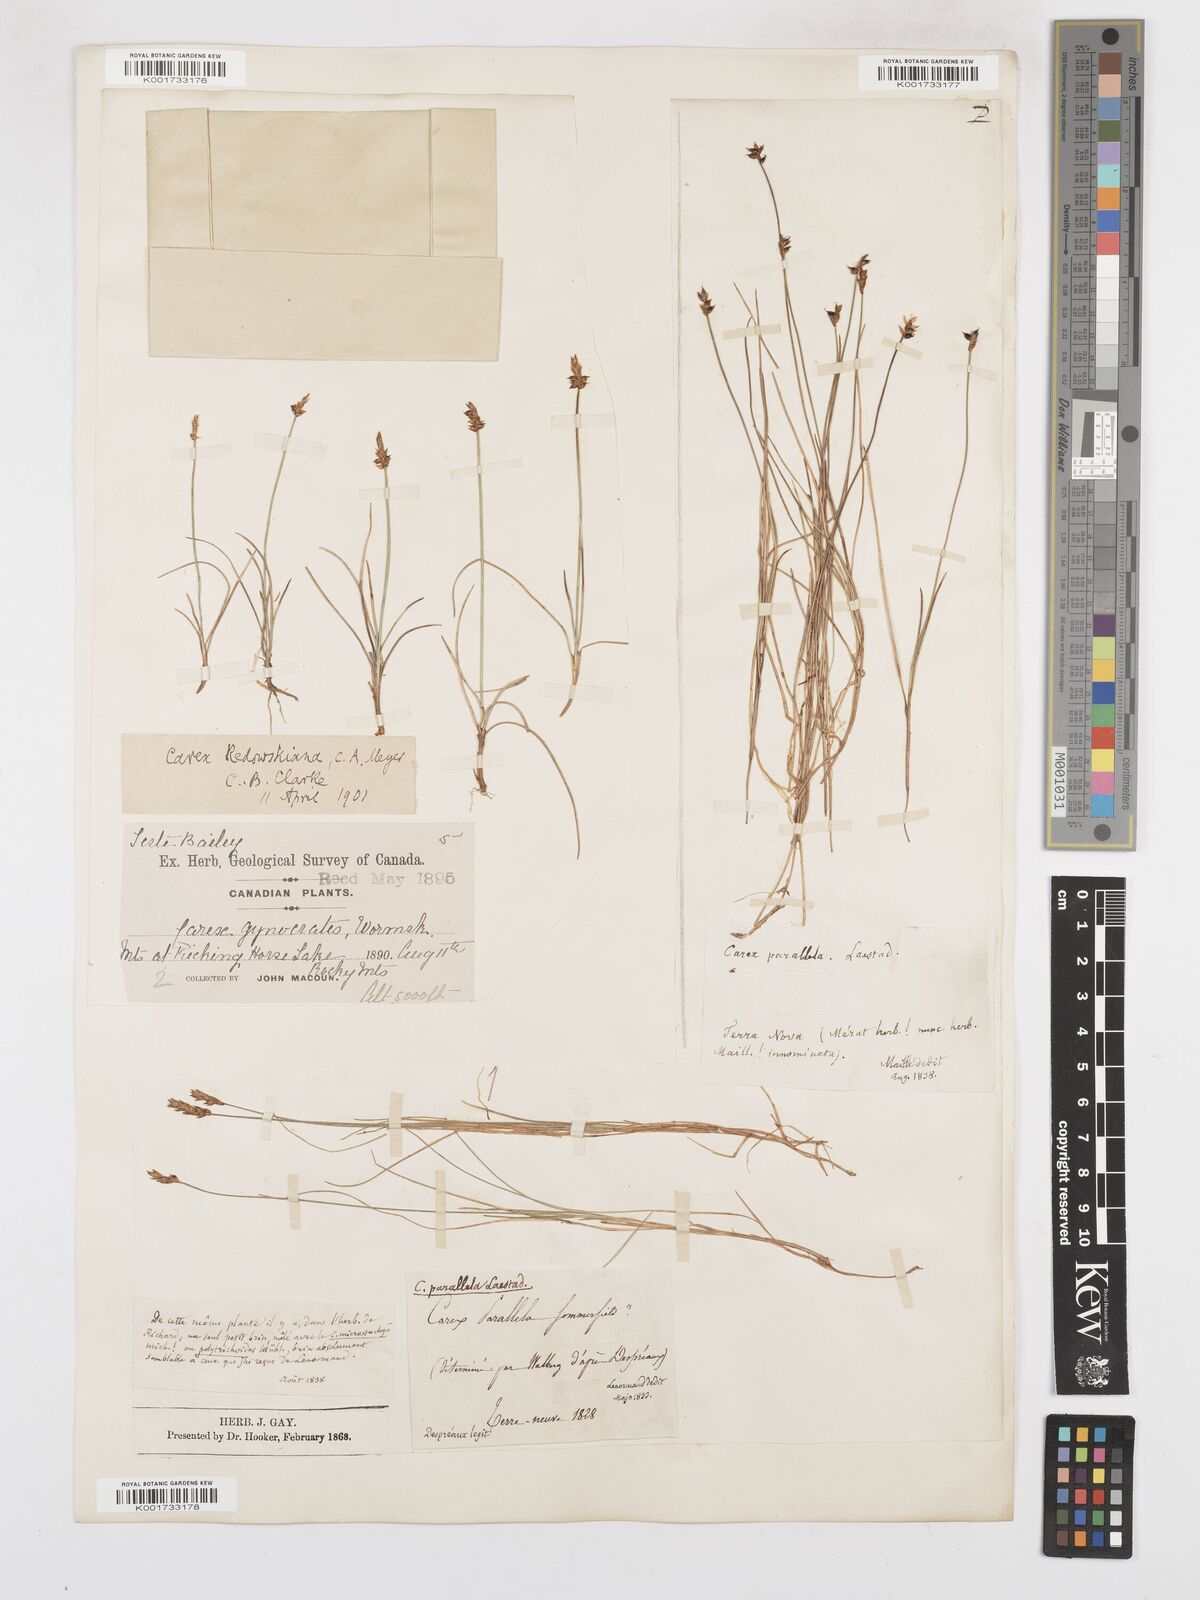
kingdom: Plantae
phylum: Tracheophyta
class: Liliopsida
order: Poales
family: Cyperaceae
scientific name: Cyperaceae
